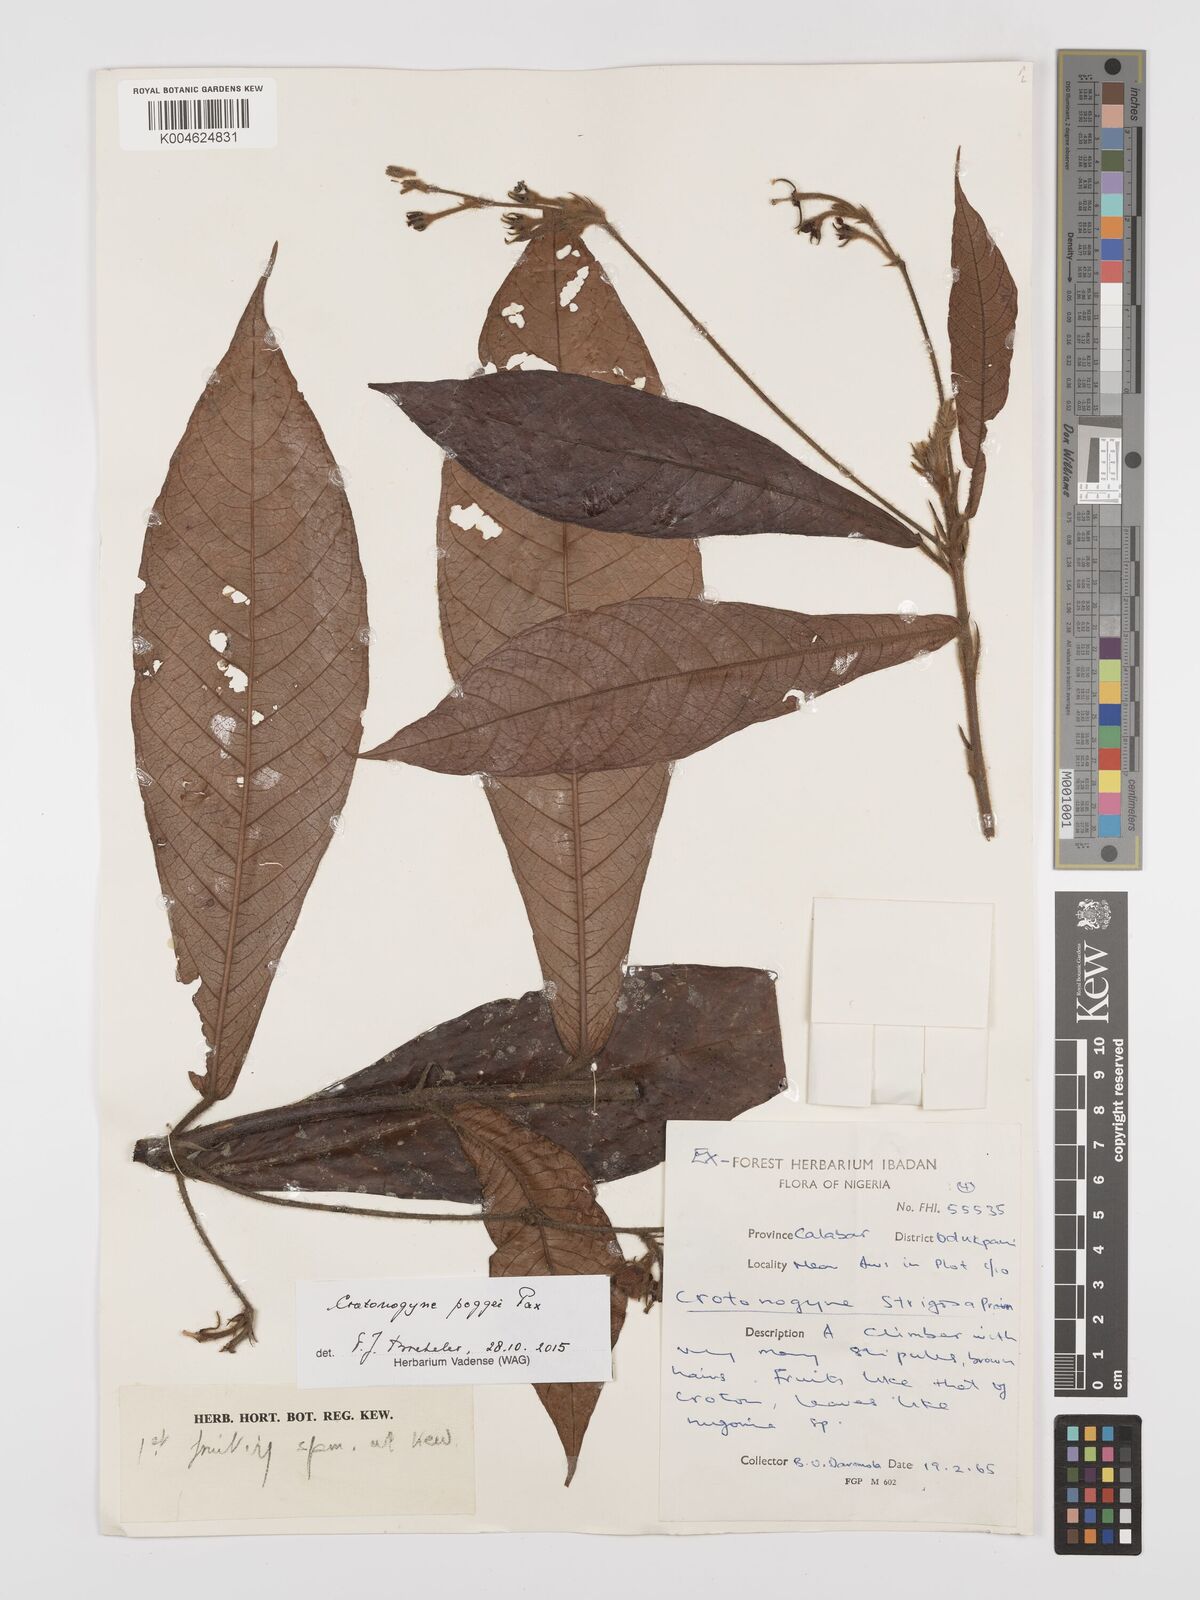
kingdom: Plantae
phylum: Tracheophyta
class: Magnoliopsida
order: Malpighiales
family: Euphorbiaceae
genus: Crotonogyne
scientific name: Crotonogyne poggei
